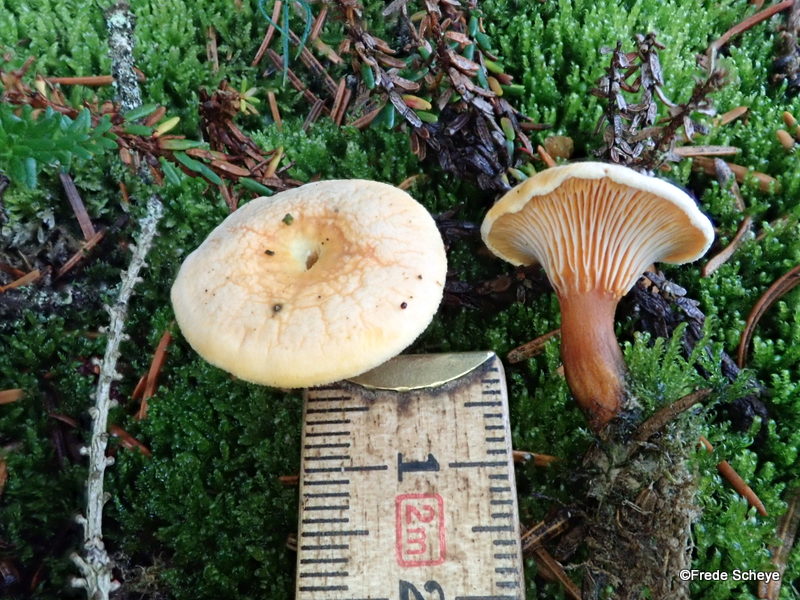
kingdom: Fungi
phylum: Basidiomycota
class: Agaricomycetes
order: Boletales
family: Hygrophoropsidaceae
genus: Hygrophoropsis
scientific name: Hygrophoropsis aurantiaca
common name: almindelig orangekantarel
